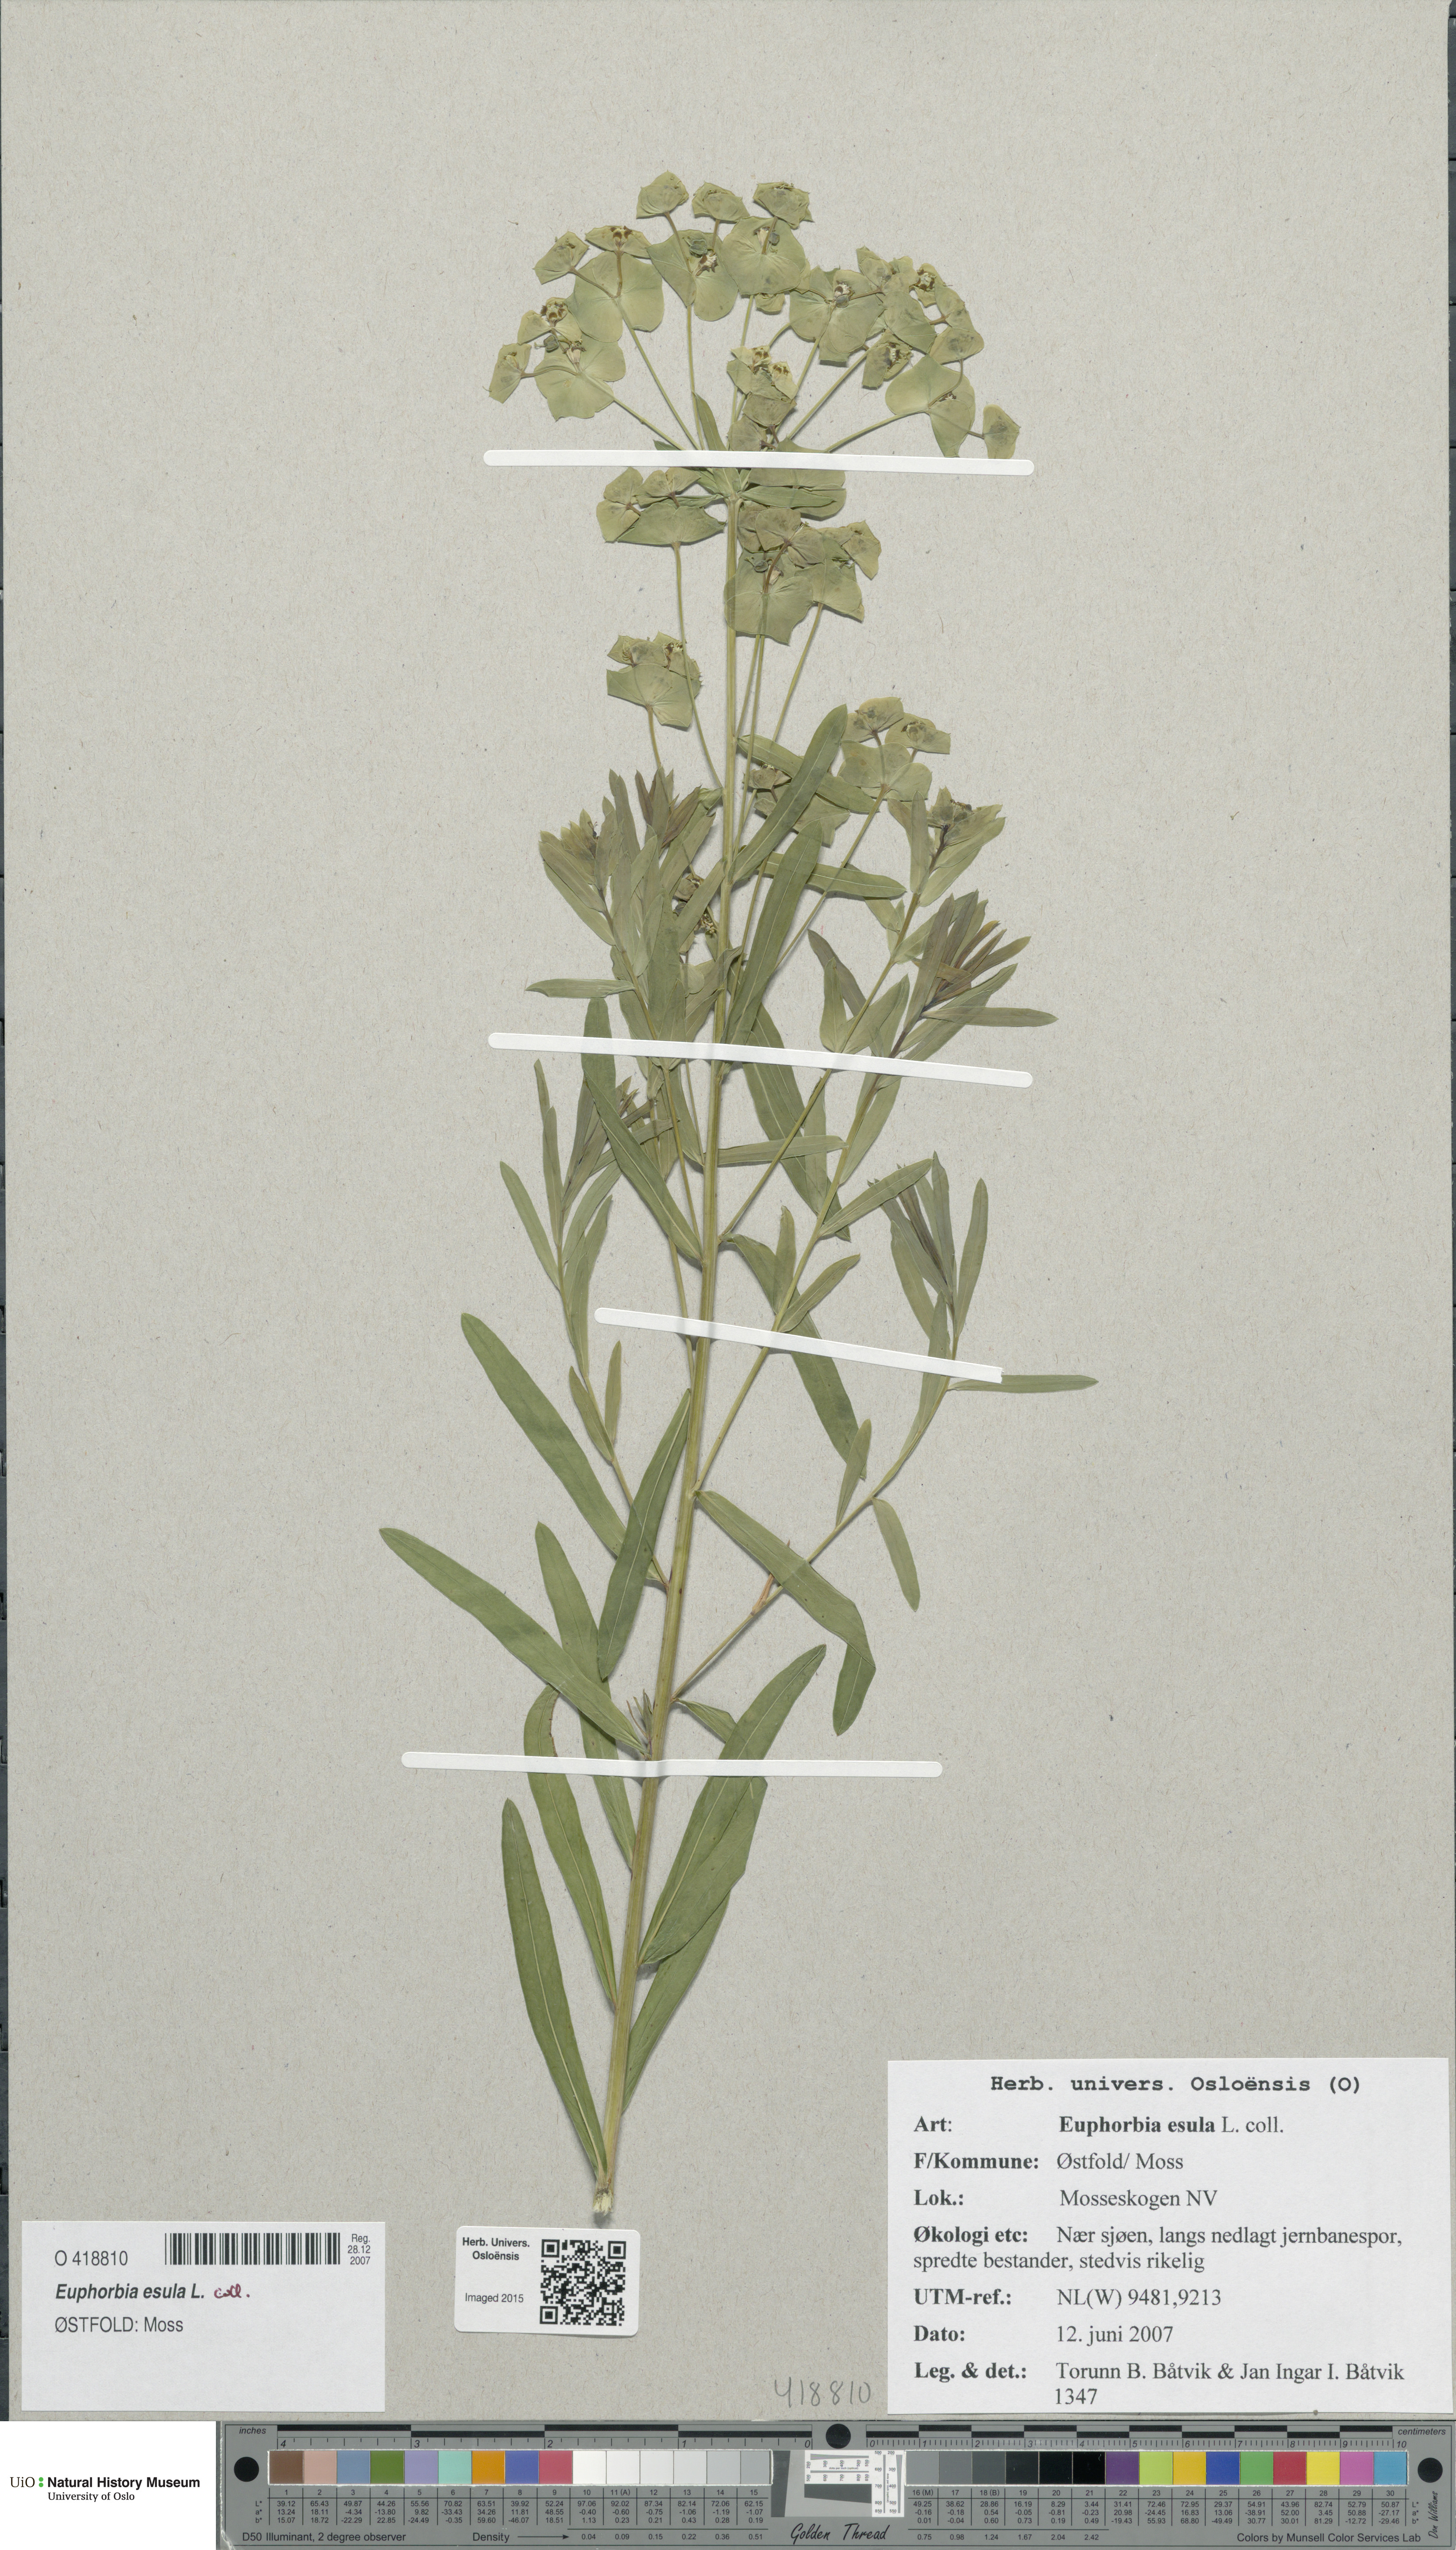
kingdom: Plantae
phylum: Tracheophyta
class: Magnoliopsida
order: Malpighiales
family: Euphorbiaceae
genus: Euphorbia
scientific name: Euphorbia esula
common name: Leafy spurge
